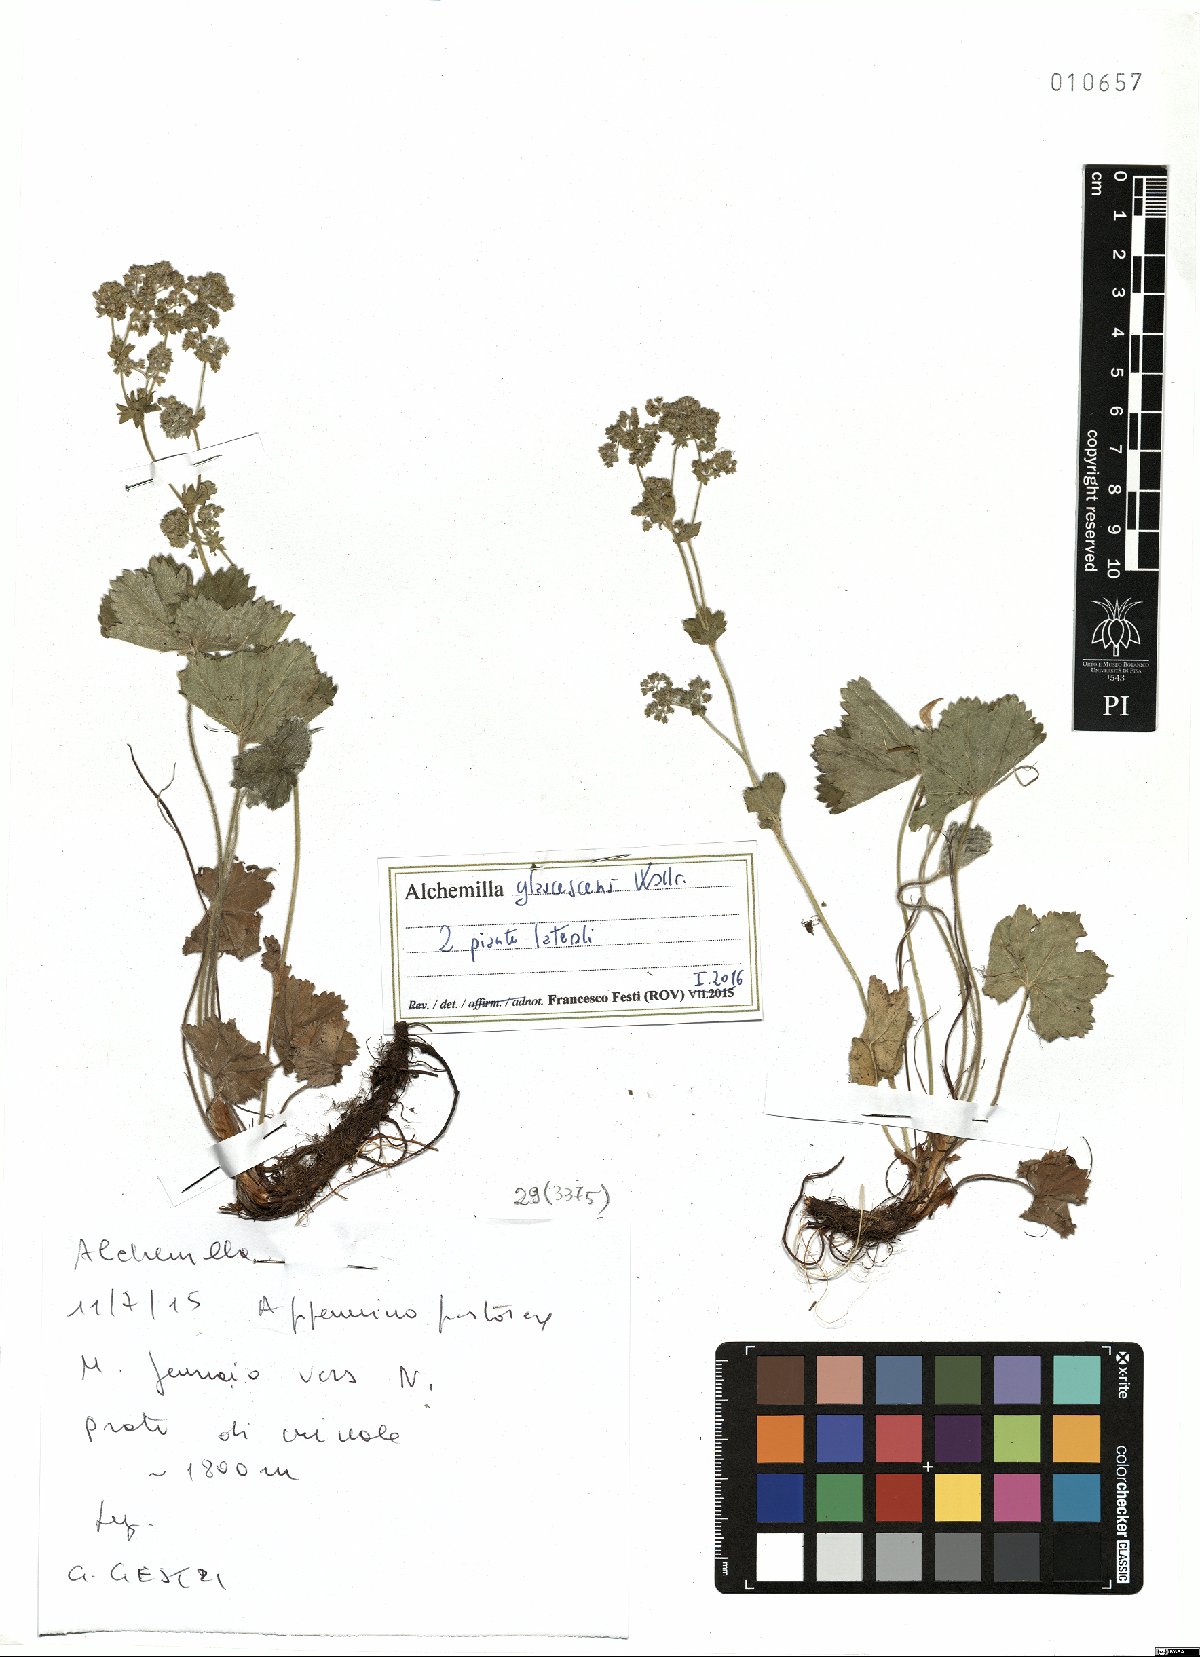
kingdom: Plantae
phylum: Tracheophyta
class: Magnoliopsida
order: Rosales
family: Rosaceae
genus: Alchemilla
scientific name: Alchemilla glaucescens
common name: Silky lady's mantle
